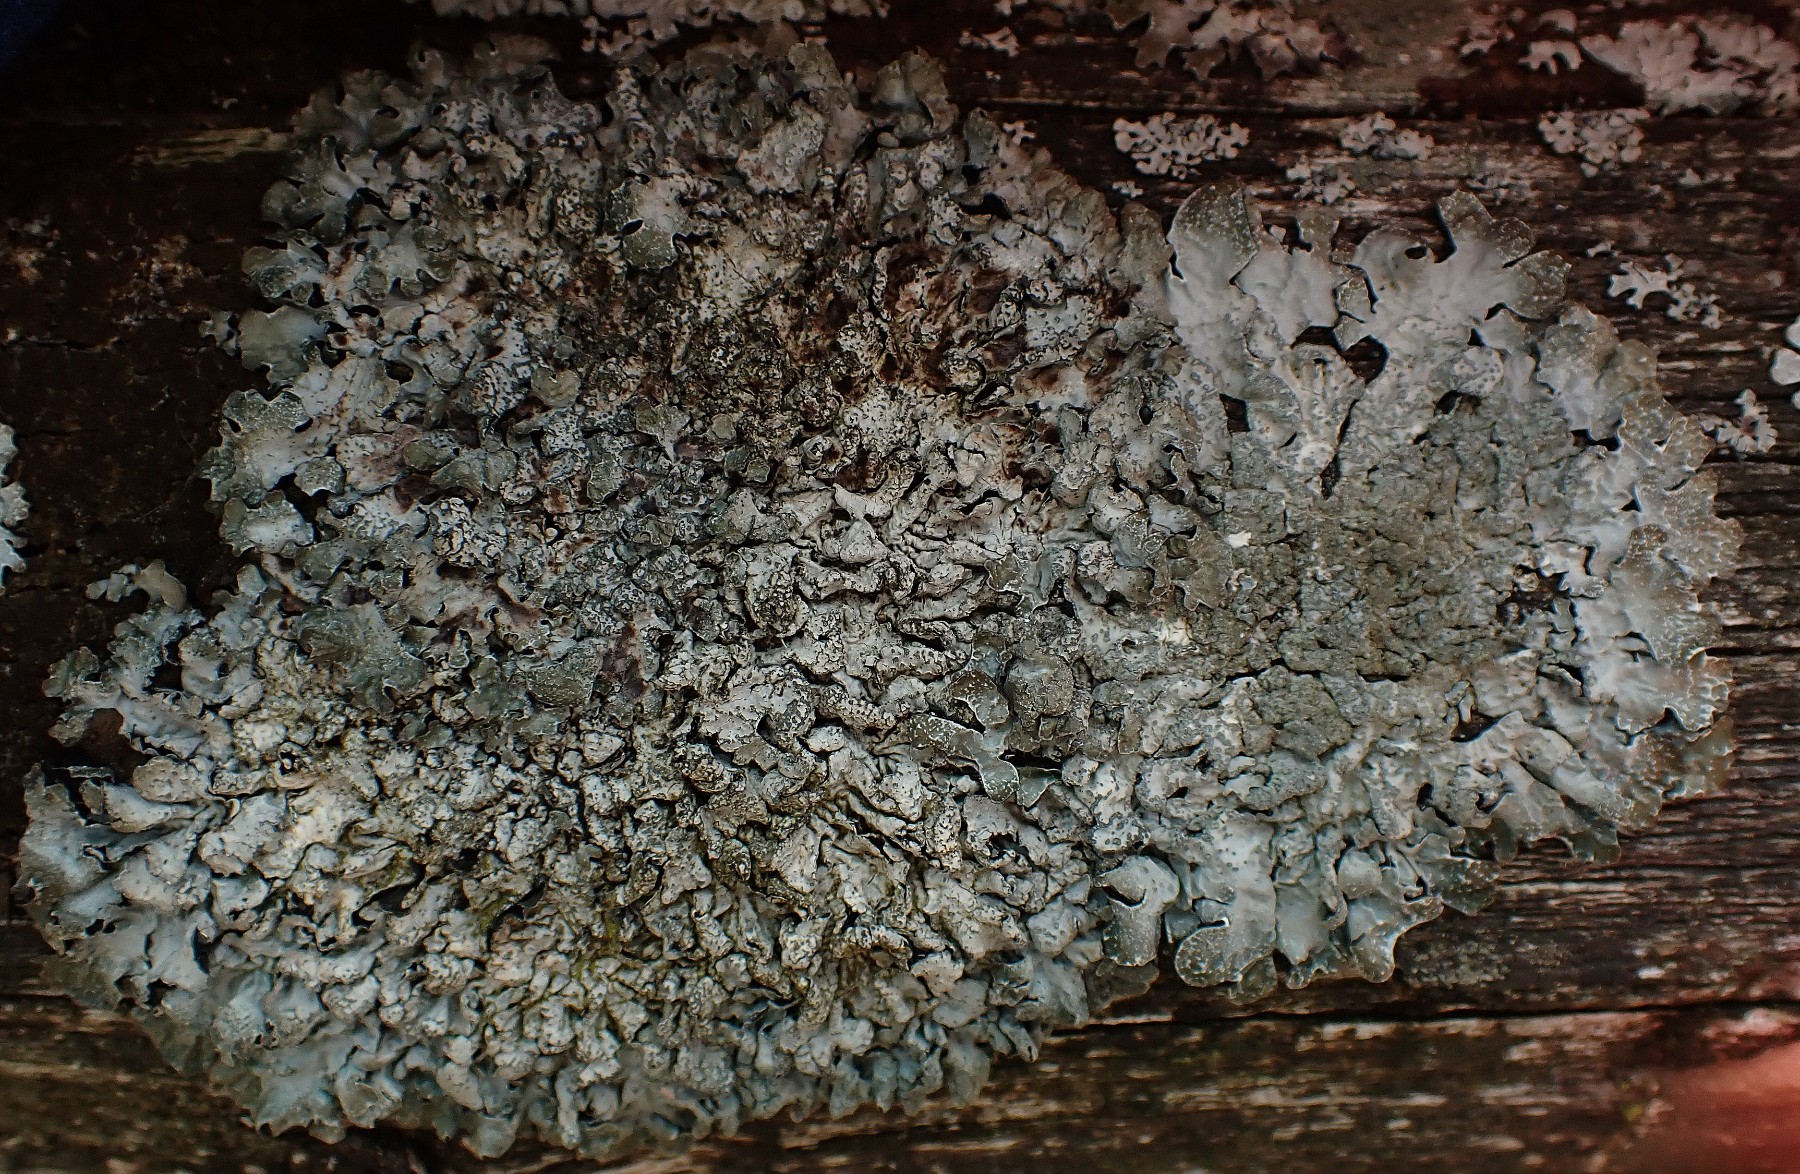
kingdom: Fungi
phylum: Ascomycota
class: Lecanoromycetes
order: Lecanorales
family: Parmeliaceae
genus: Parmelia
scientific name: Parmelia sulcata
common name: rynket skållav
